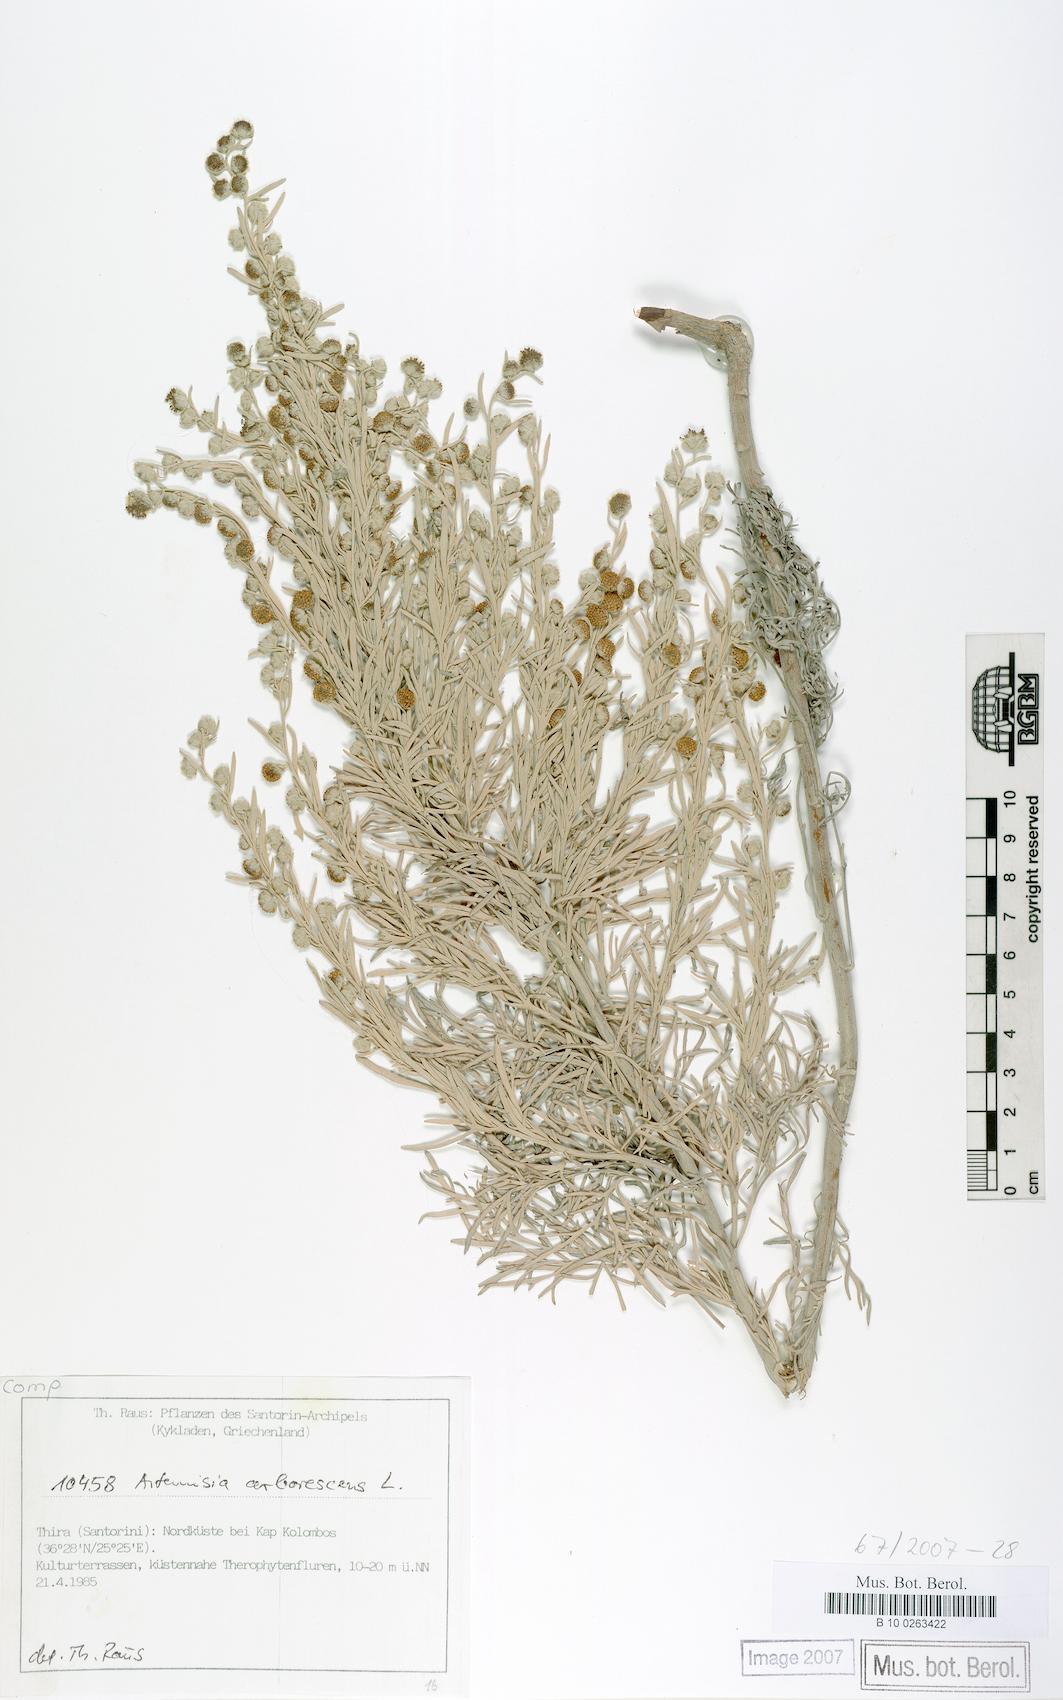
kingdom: Plantae
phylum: Tracheophyta
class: Magnoliopsida
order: Asterales
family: Asteraceae
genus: Artemisia
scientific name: Artemisia arborescens
